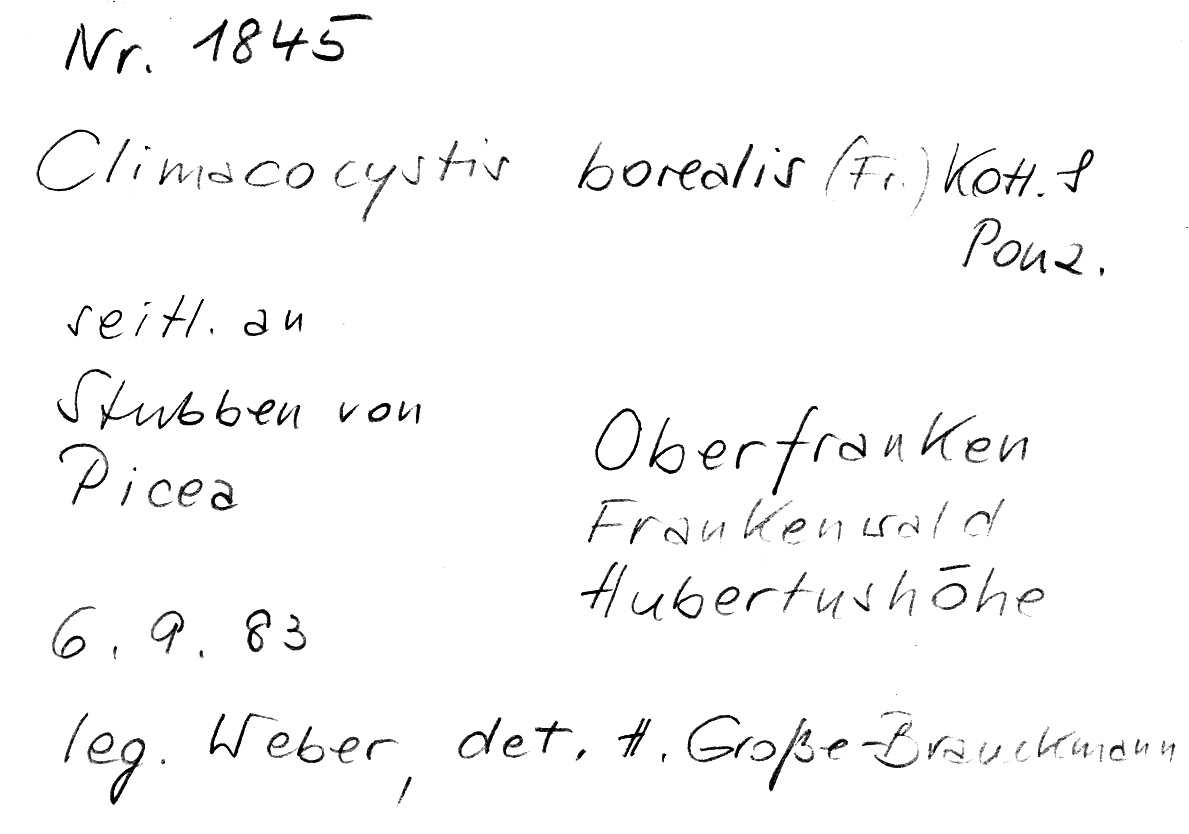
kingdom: Plantae
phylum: Tracheophyta
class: Pinopsida
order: Pinales
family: Pinaceae
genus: Picea
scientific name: Picea
